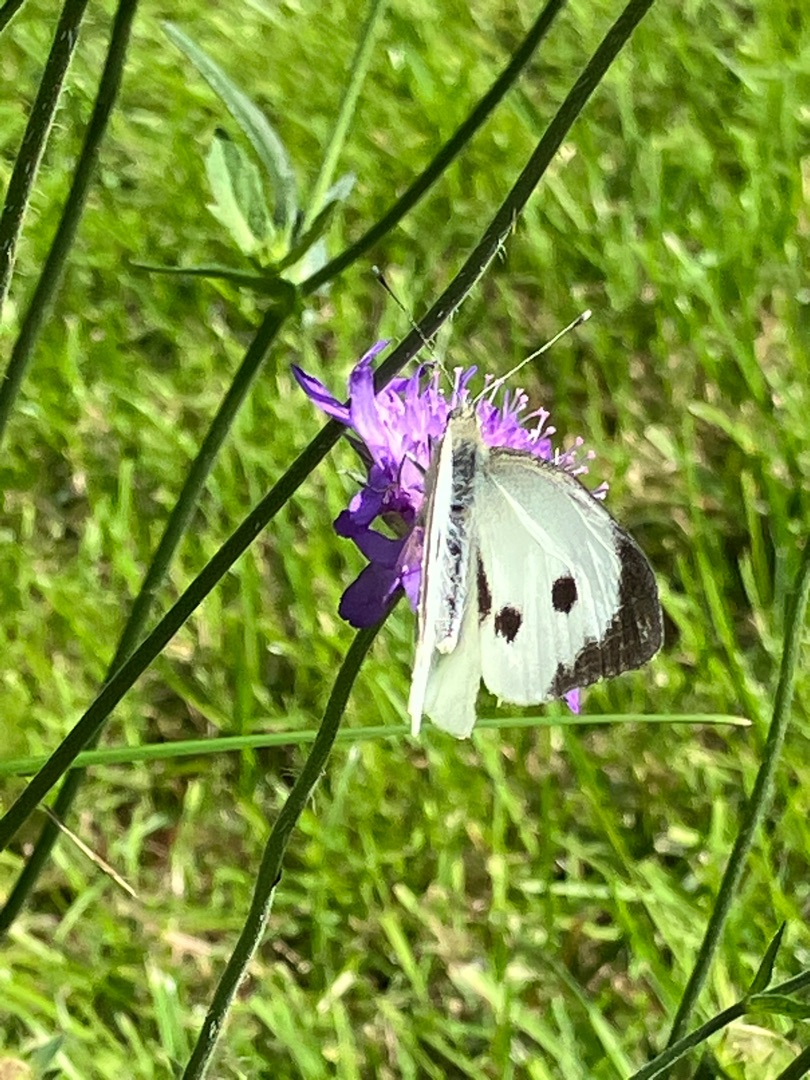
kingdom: Animalia
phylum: Arthropoda
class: Insecta
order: Lepidoptera
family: Pieridae
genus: Pieris
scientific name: Pieris brassicae
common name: Stor kålsommerfugl
